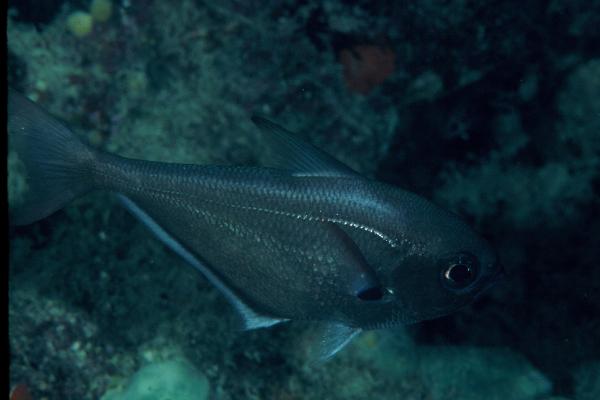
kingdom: Animalia
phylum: Chordata
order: Perciformes
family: Pempheridae
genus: Pempheris
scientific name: Pempheris
